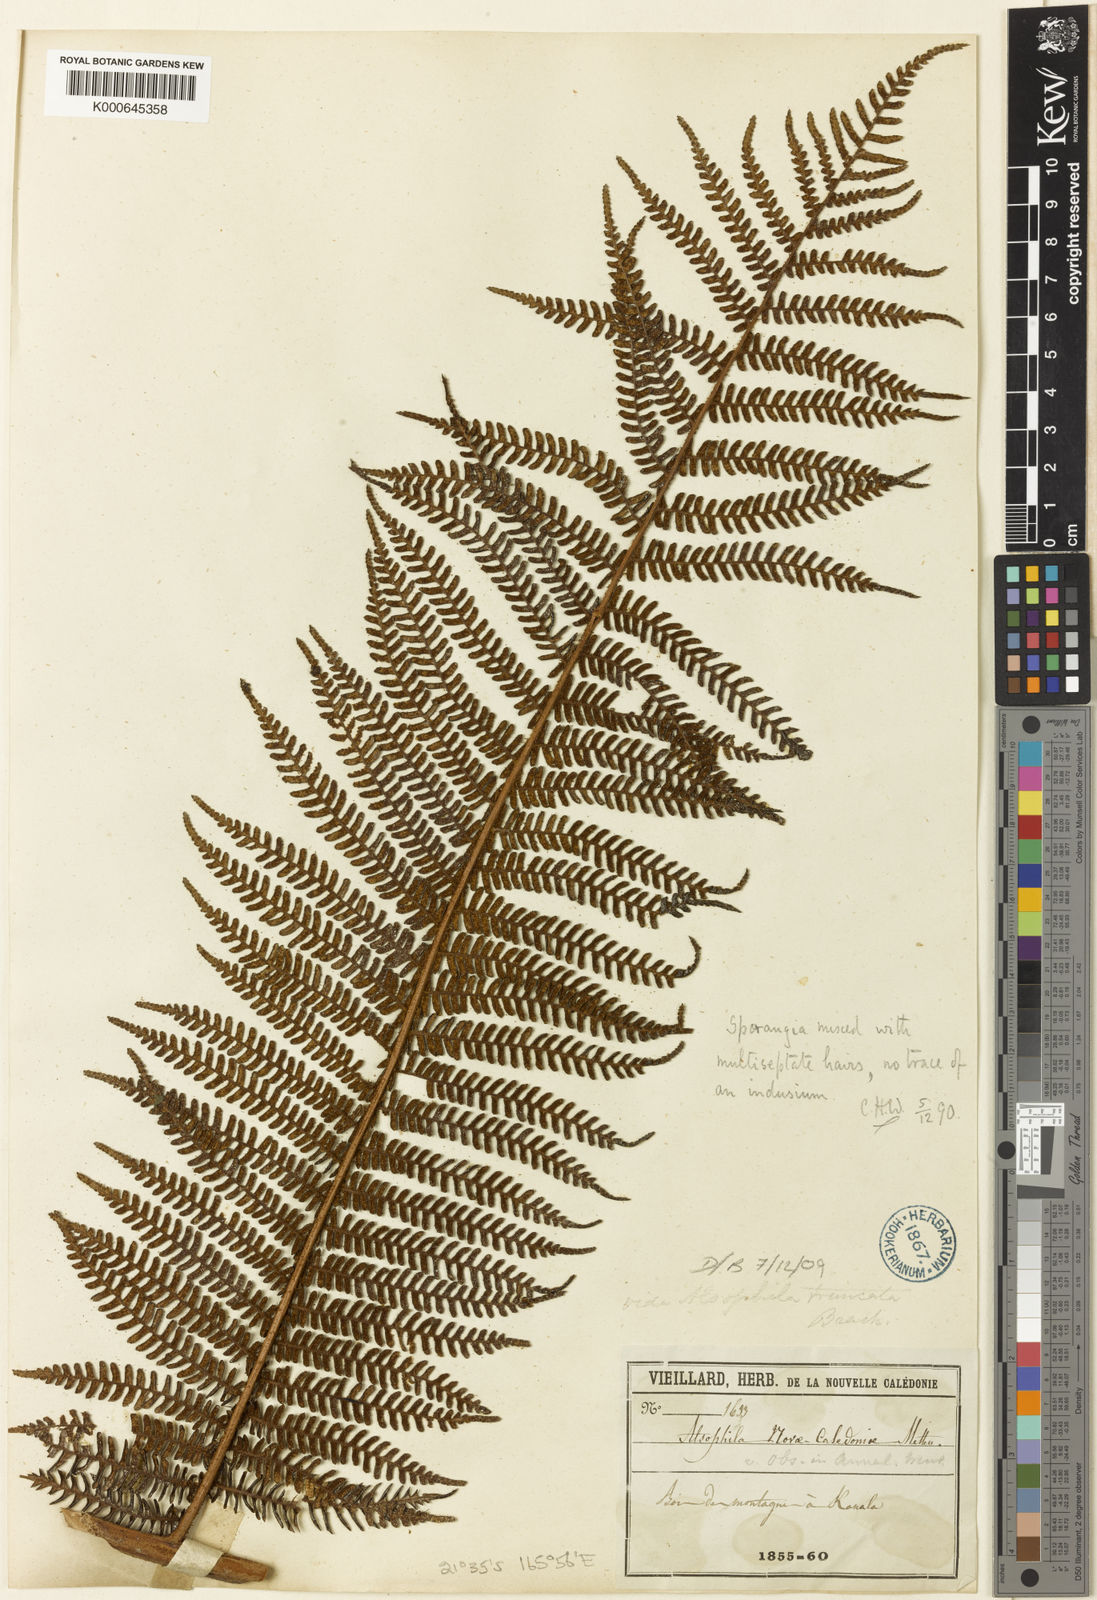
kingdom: Plantae
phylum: Tracheophyta
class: Polypodiopsida
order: Cyatheales
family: Cyatheaceae
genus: Sphaeropteris
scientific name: Sphaeropteris novae-caledoniae
